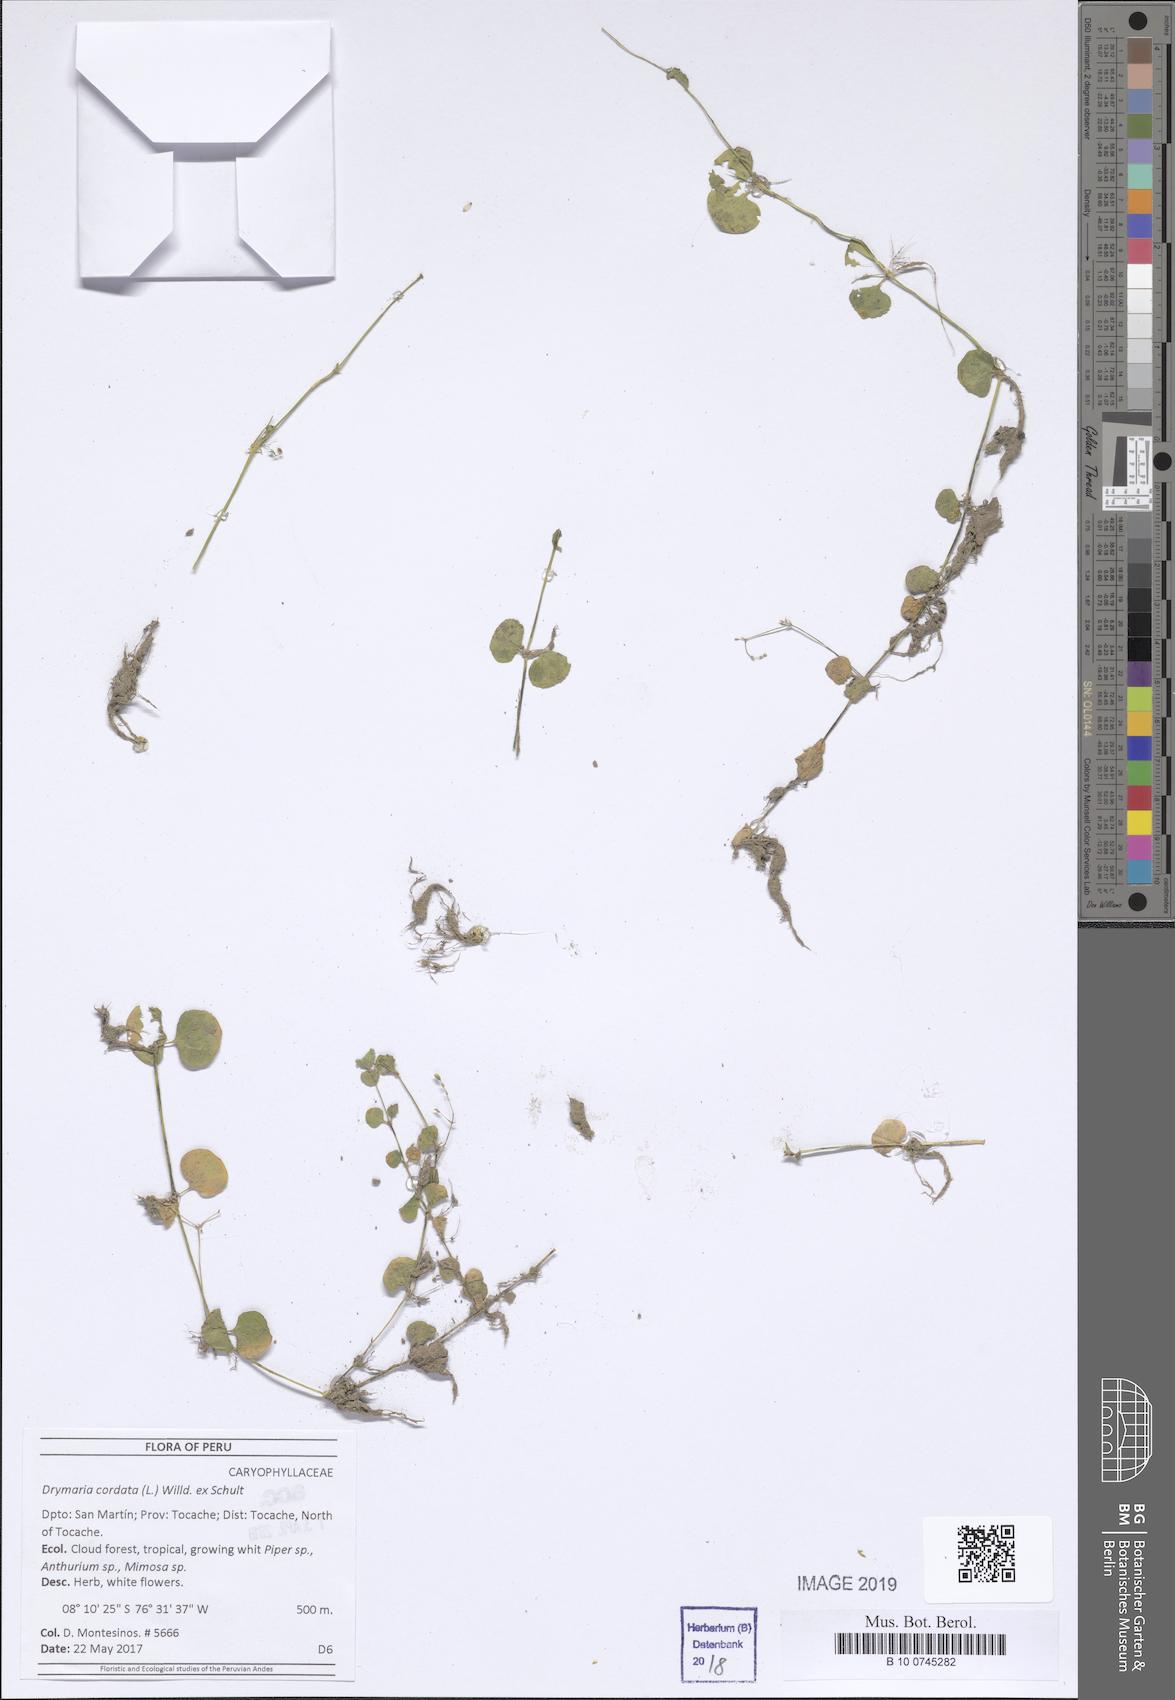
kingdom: Plantae
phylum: Tracheophyta
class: Magnoliopsida
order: Caryophyllales
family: Caryophyllaceae
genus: Drymaria
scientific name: Drymaria cordata
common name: Whitesnow
